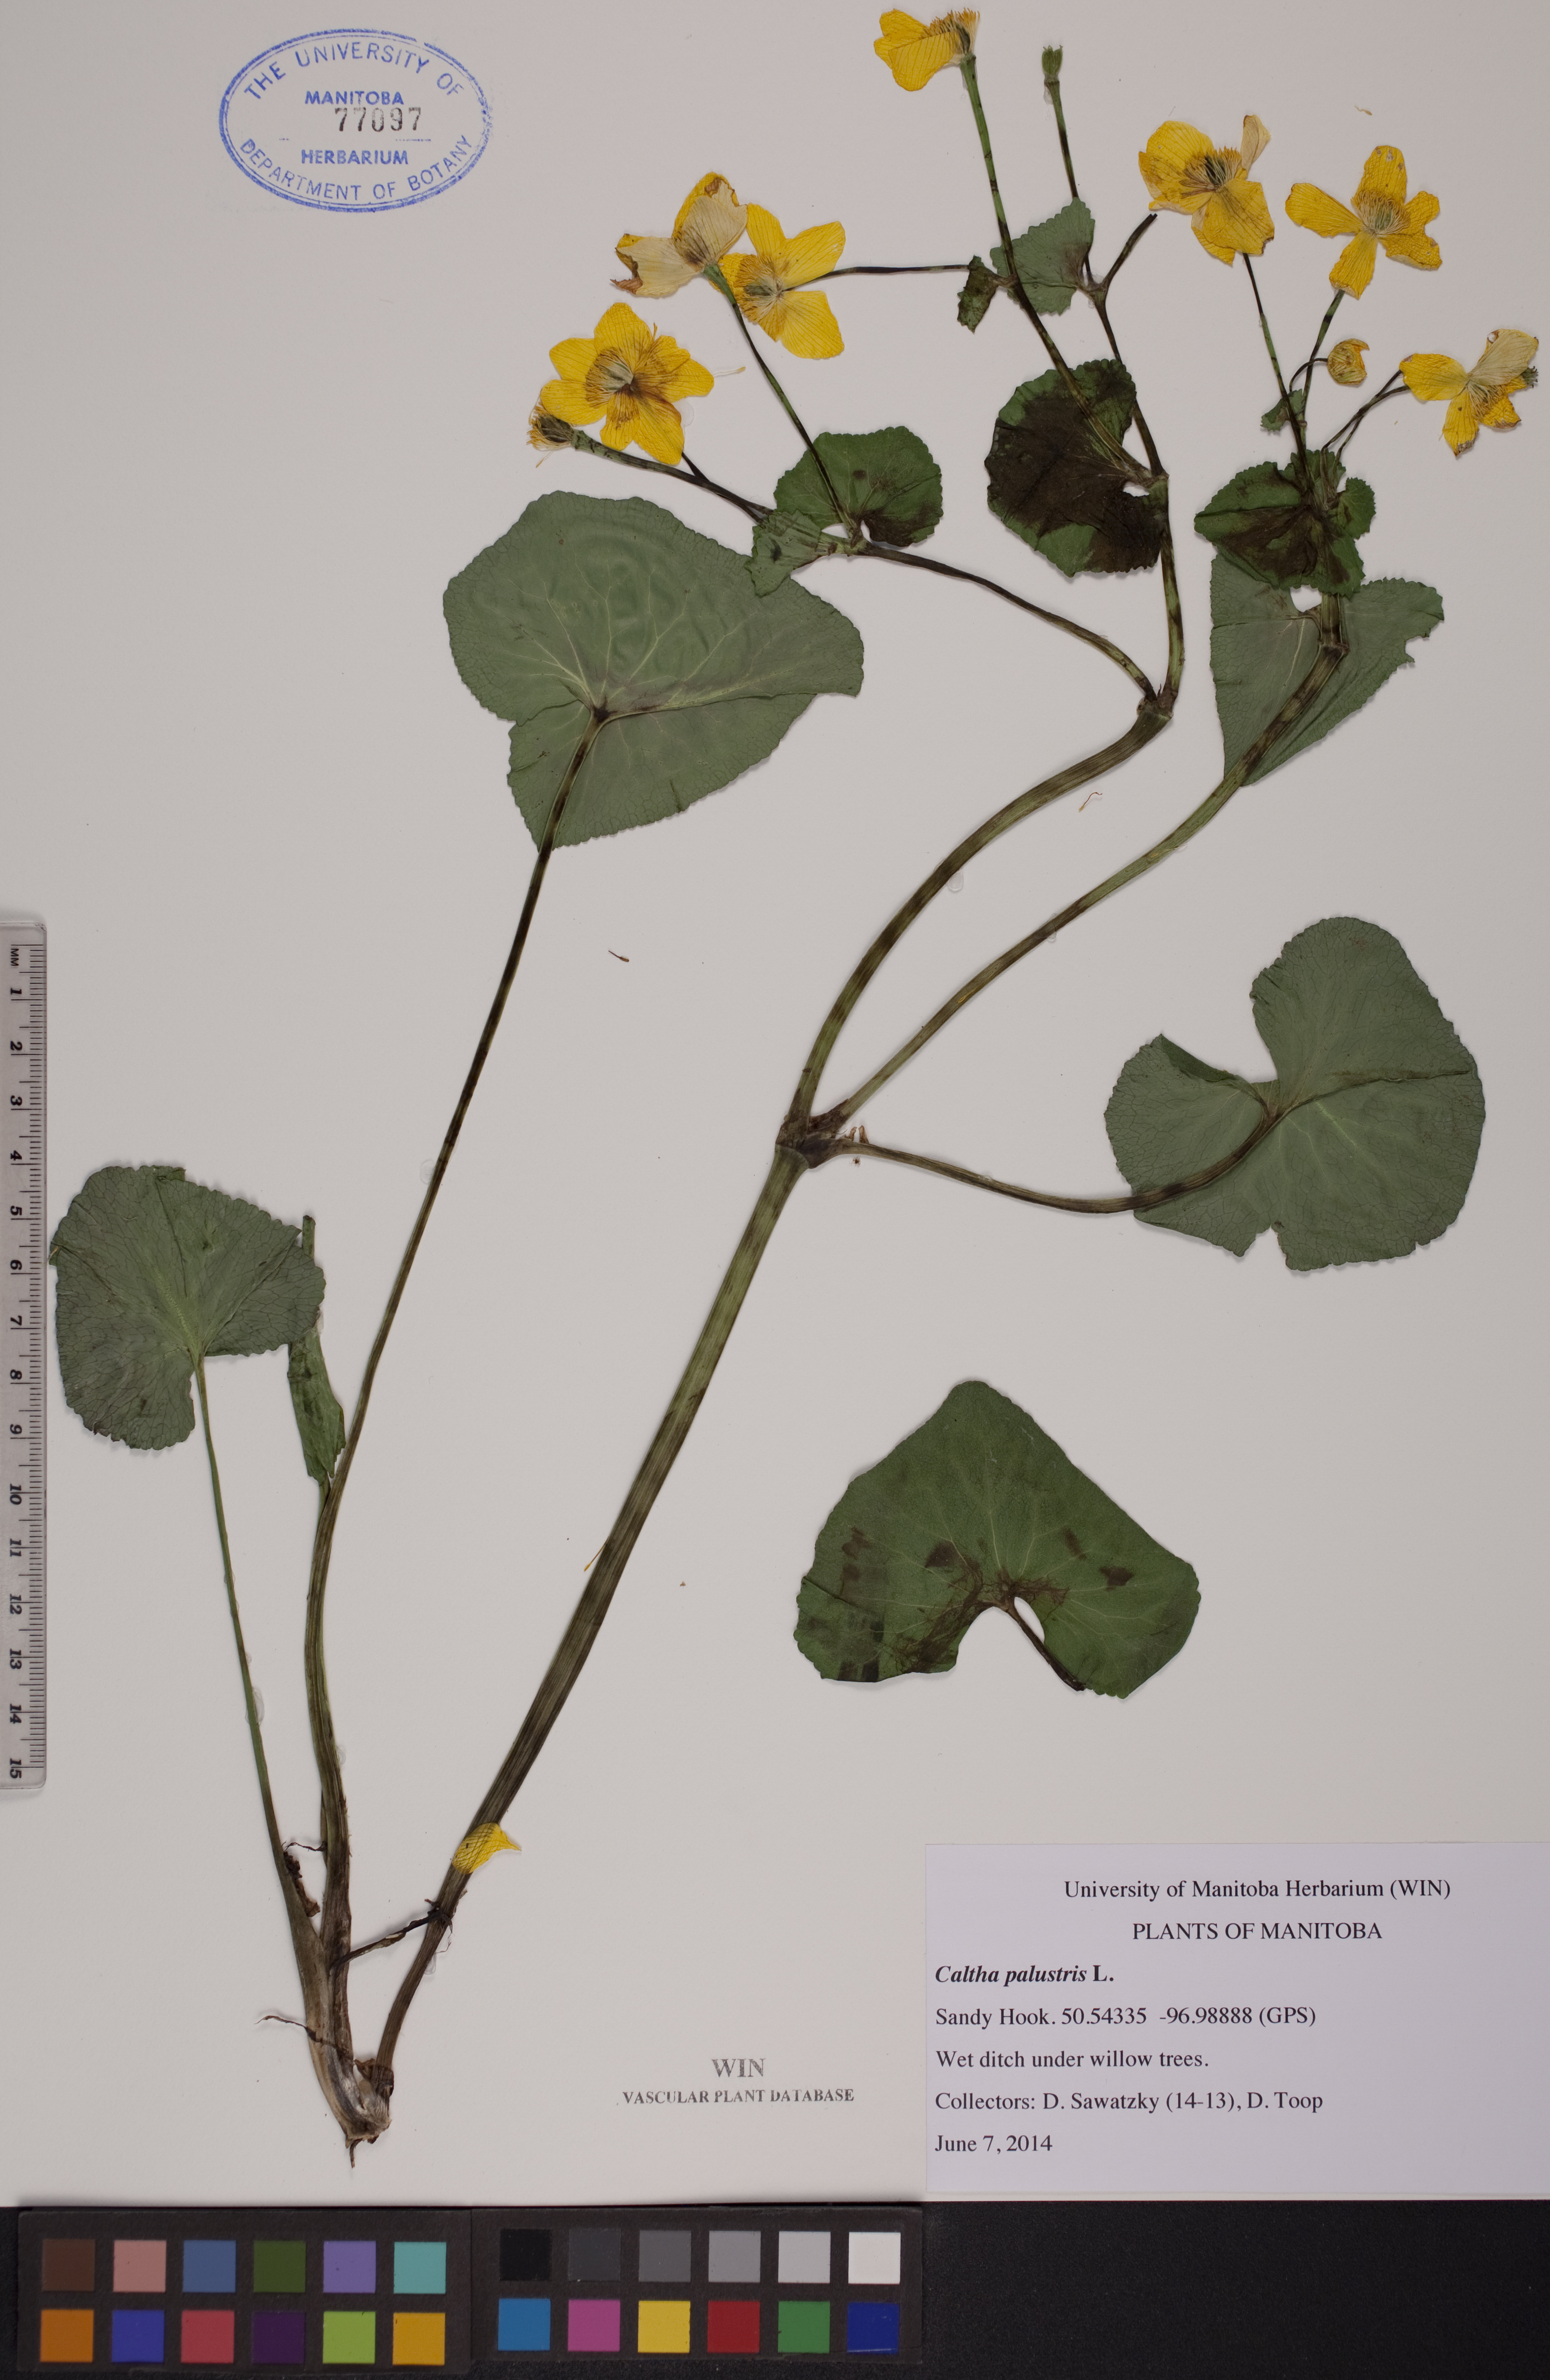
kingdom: Plantae
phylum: Tracheophyta
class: Magnoliopsida
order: Ranunculales
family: Ranunculaceae
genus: Caltha
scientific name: Caltha palustris
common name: Marsh marigold
